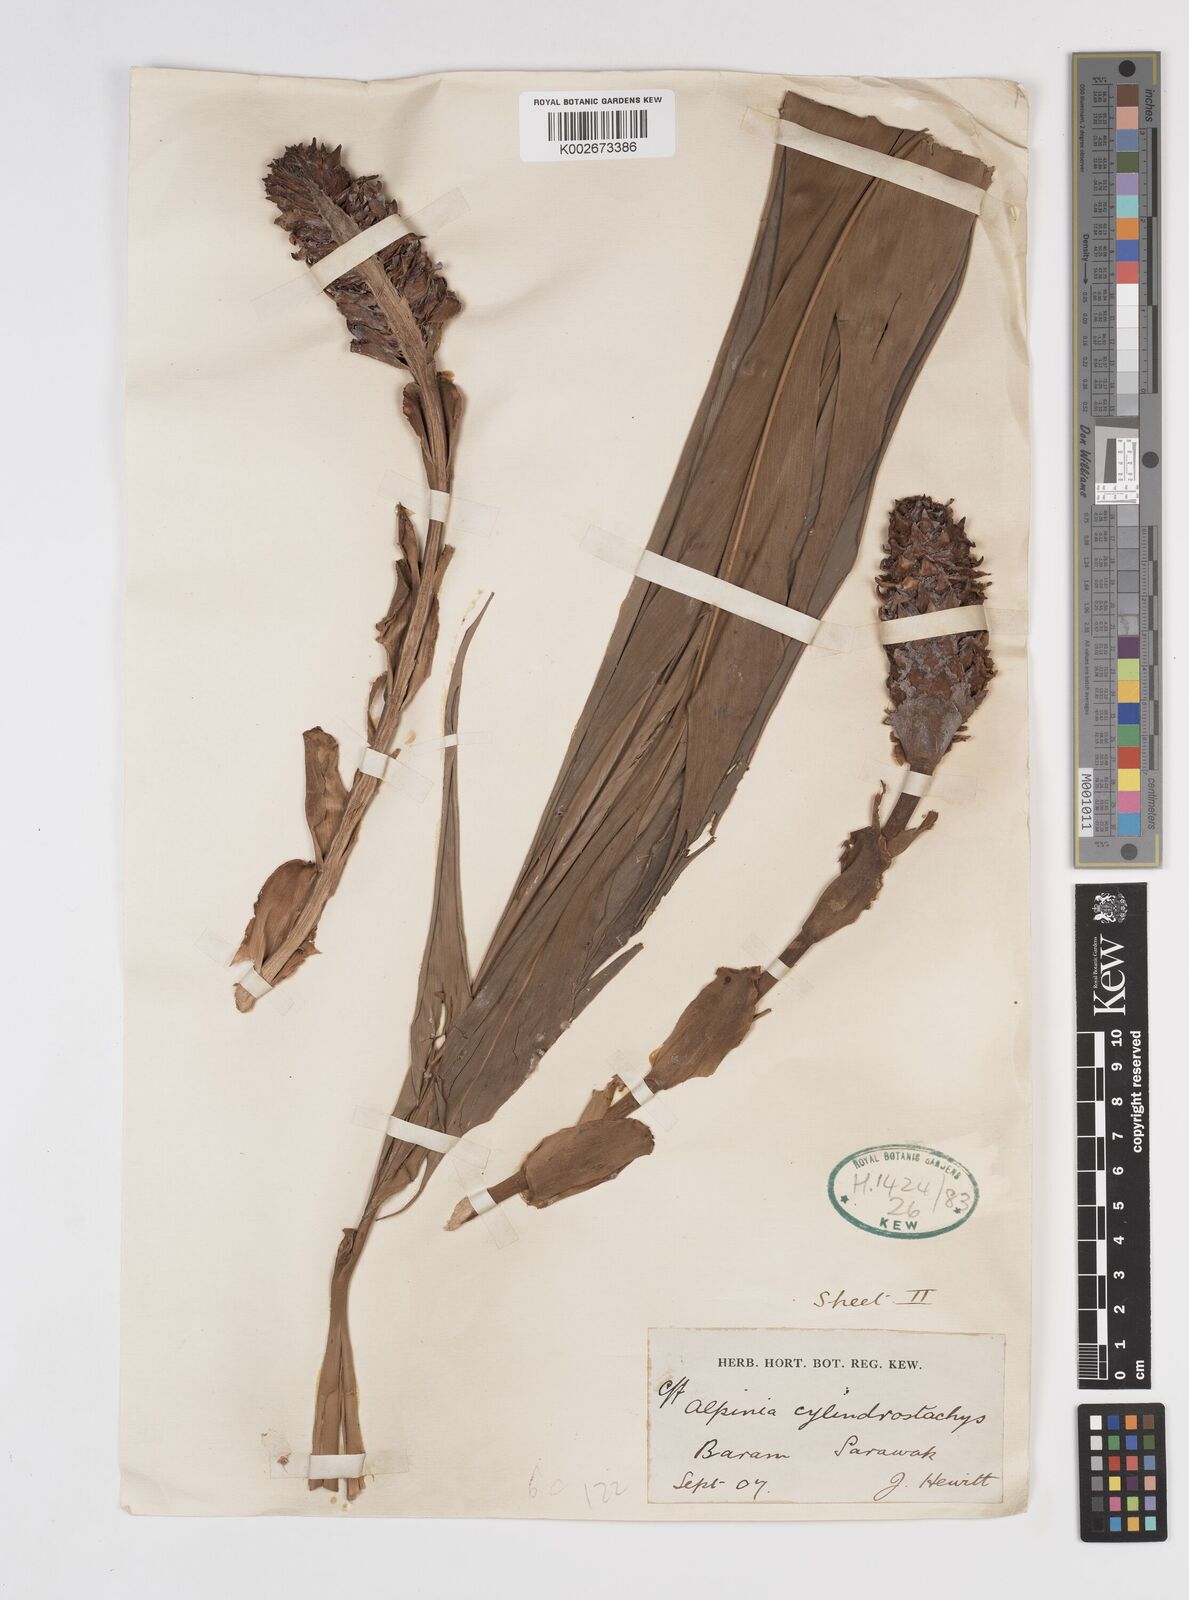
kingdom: Plantae
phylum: Tracheophyta
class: Liliopsida
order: Zingiberales
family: Zingiberaceae
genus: Conamomum
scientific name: Conamomum cylindrostachys
